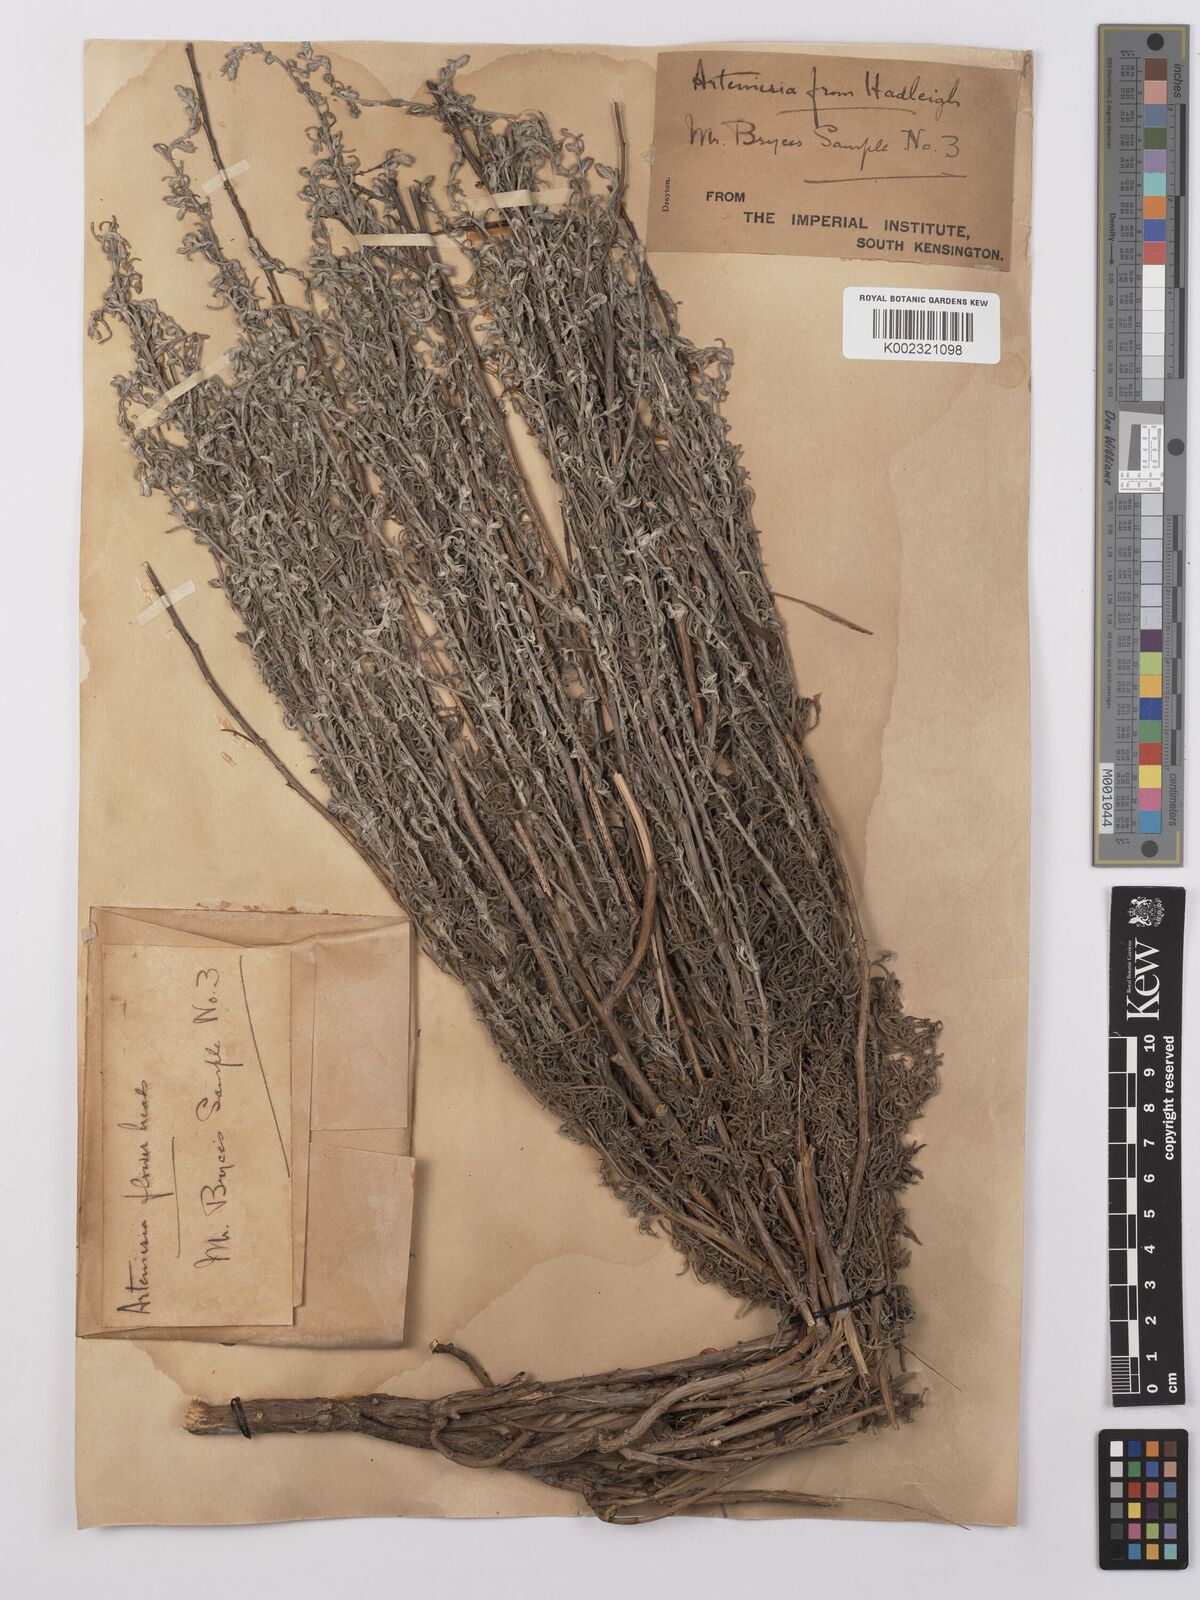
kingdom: Plantae
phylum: Tracheophyta
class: Magnoliopsida
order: Asterales
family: Asteraceae
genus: Artemisia
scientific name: Artemisia maritima
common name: Wormseed
